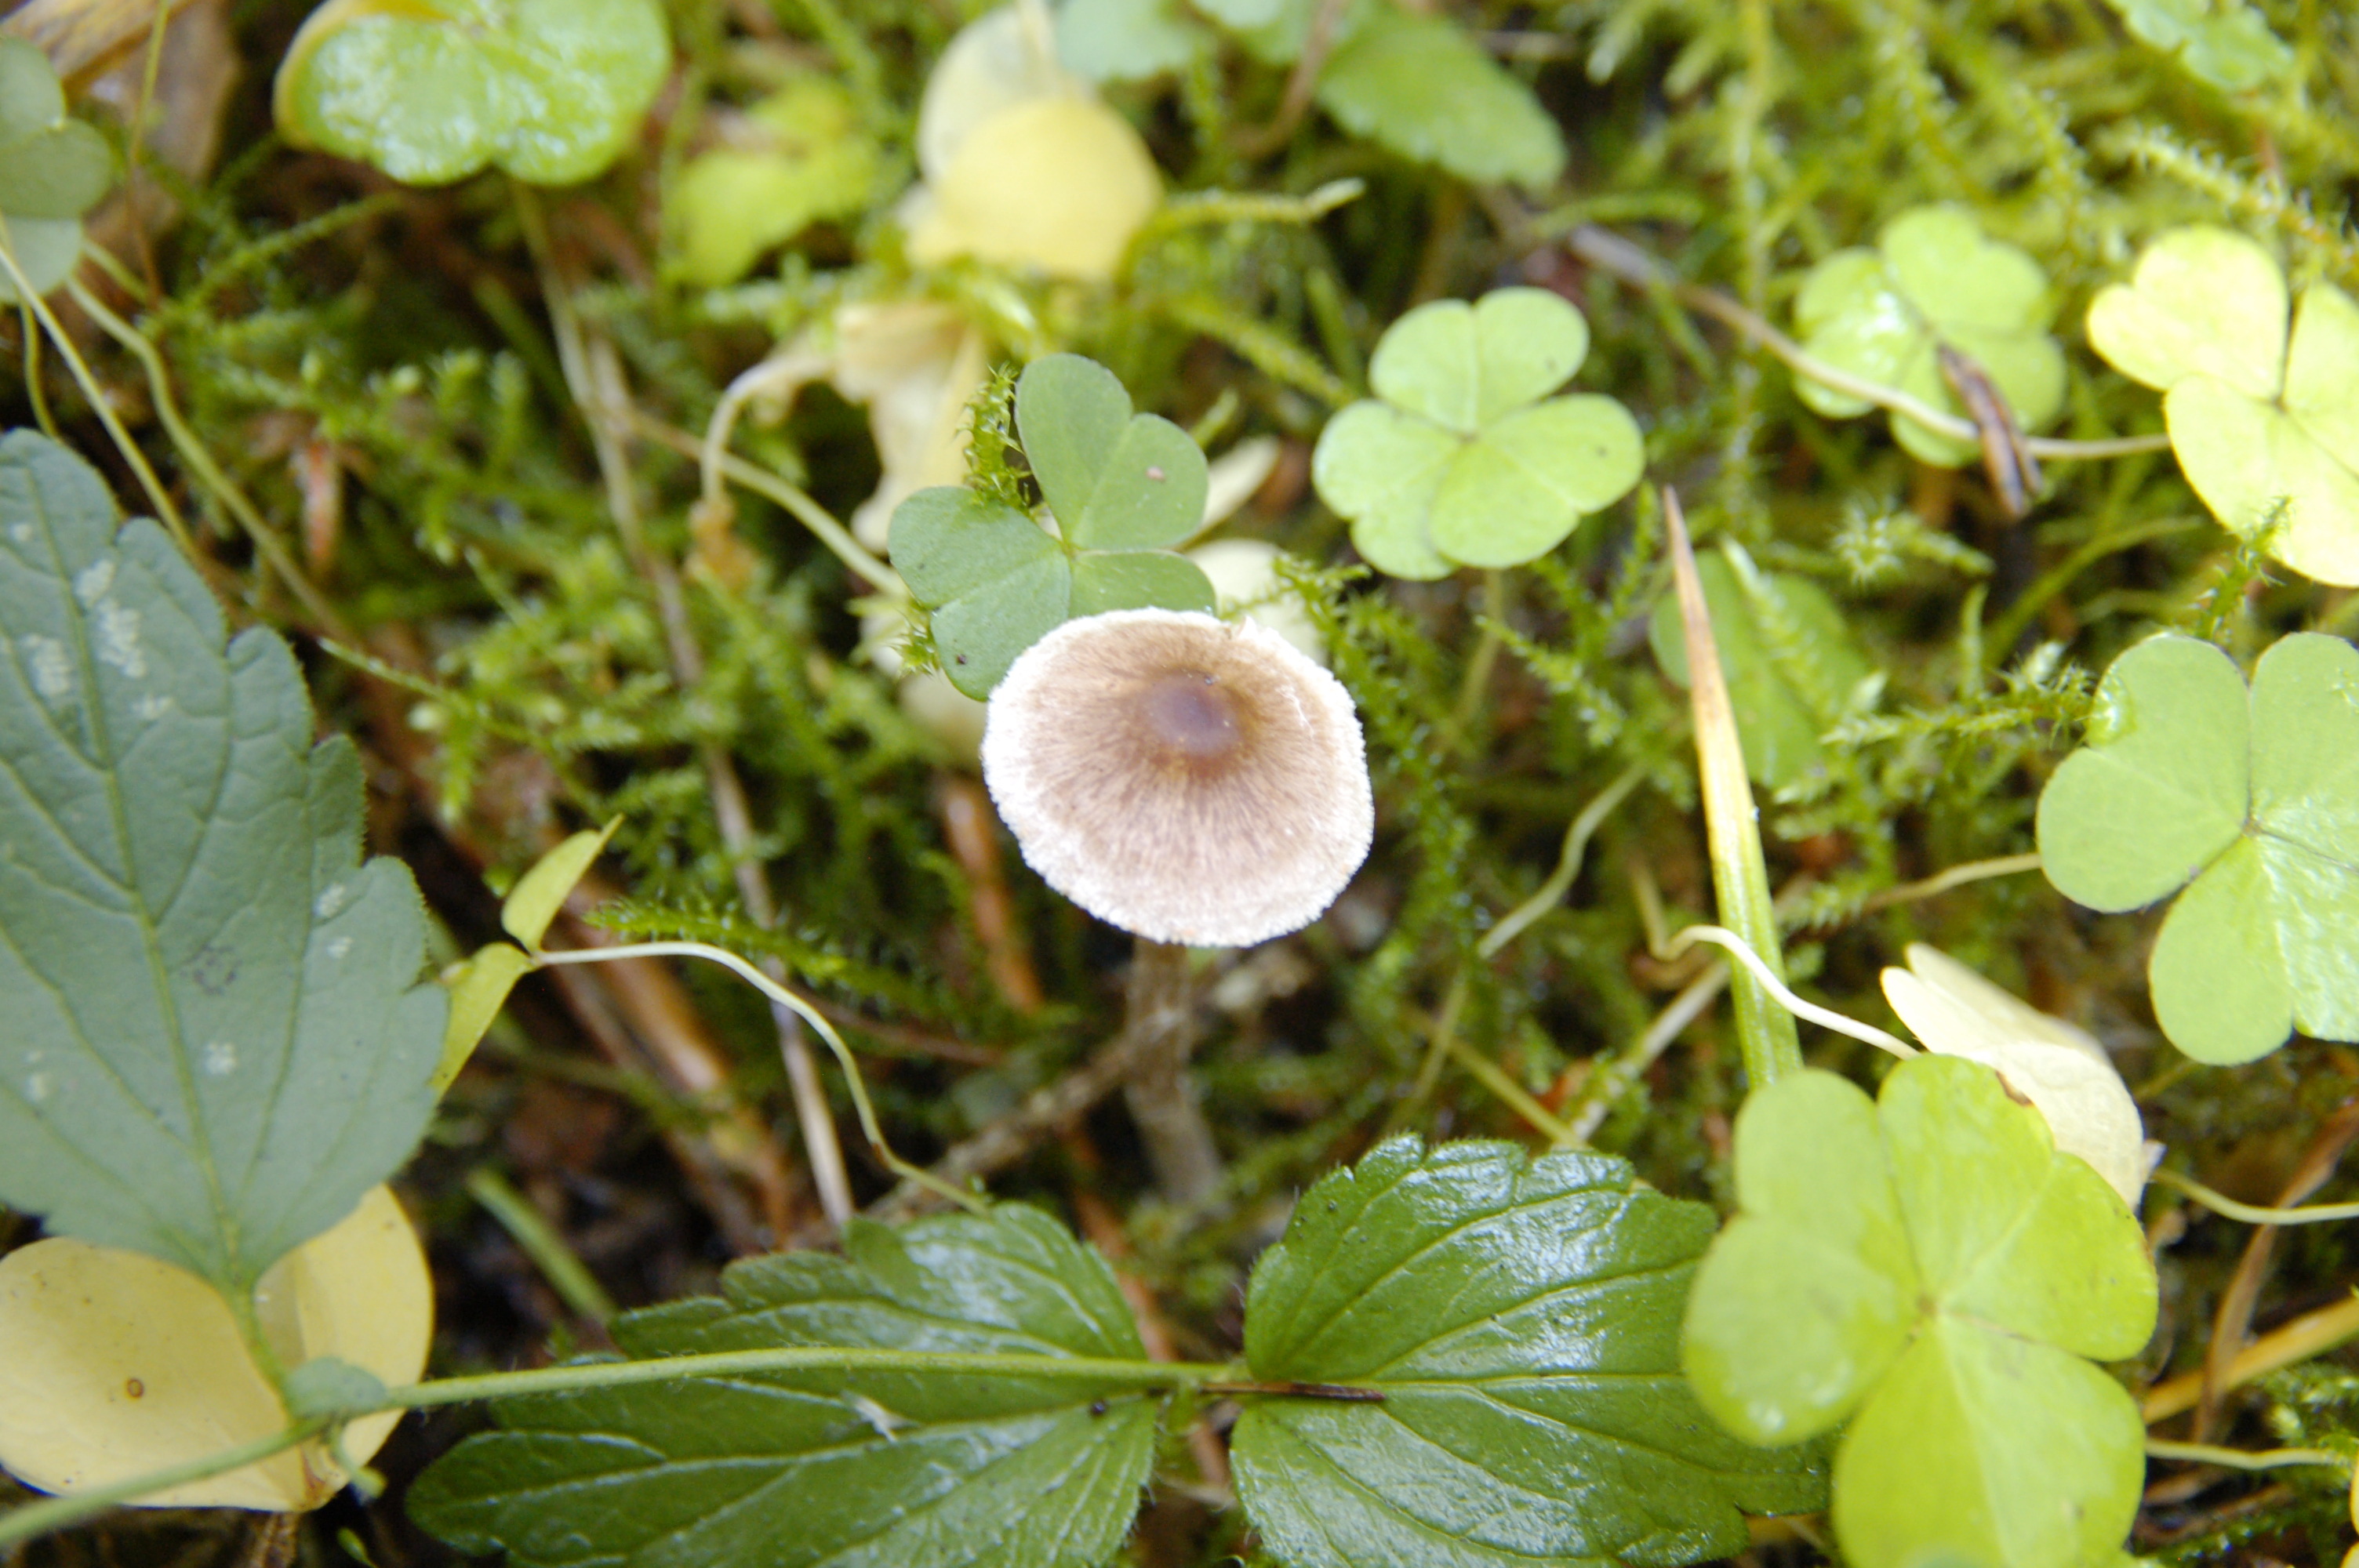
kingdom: Fungi
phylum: Basidiomycota
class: Agaricomycetes
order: Agaricales
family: Cortinariaceae
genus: Cortinarius
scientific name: Cortinarius casimirii
